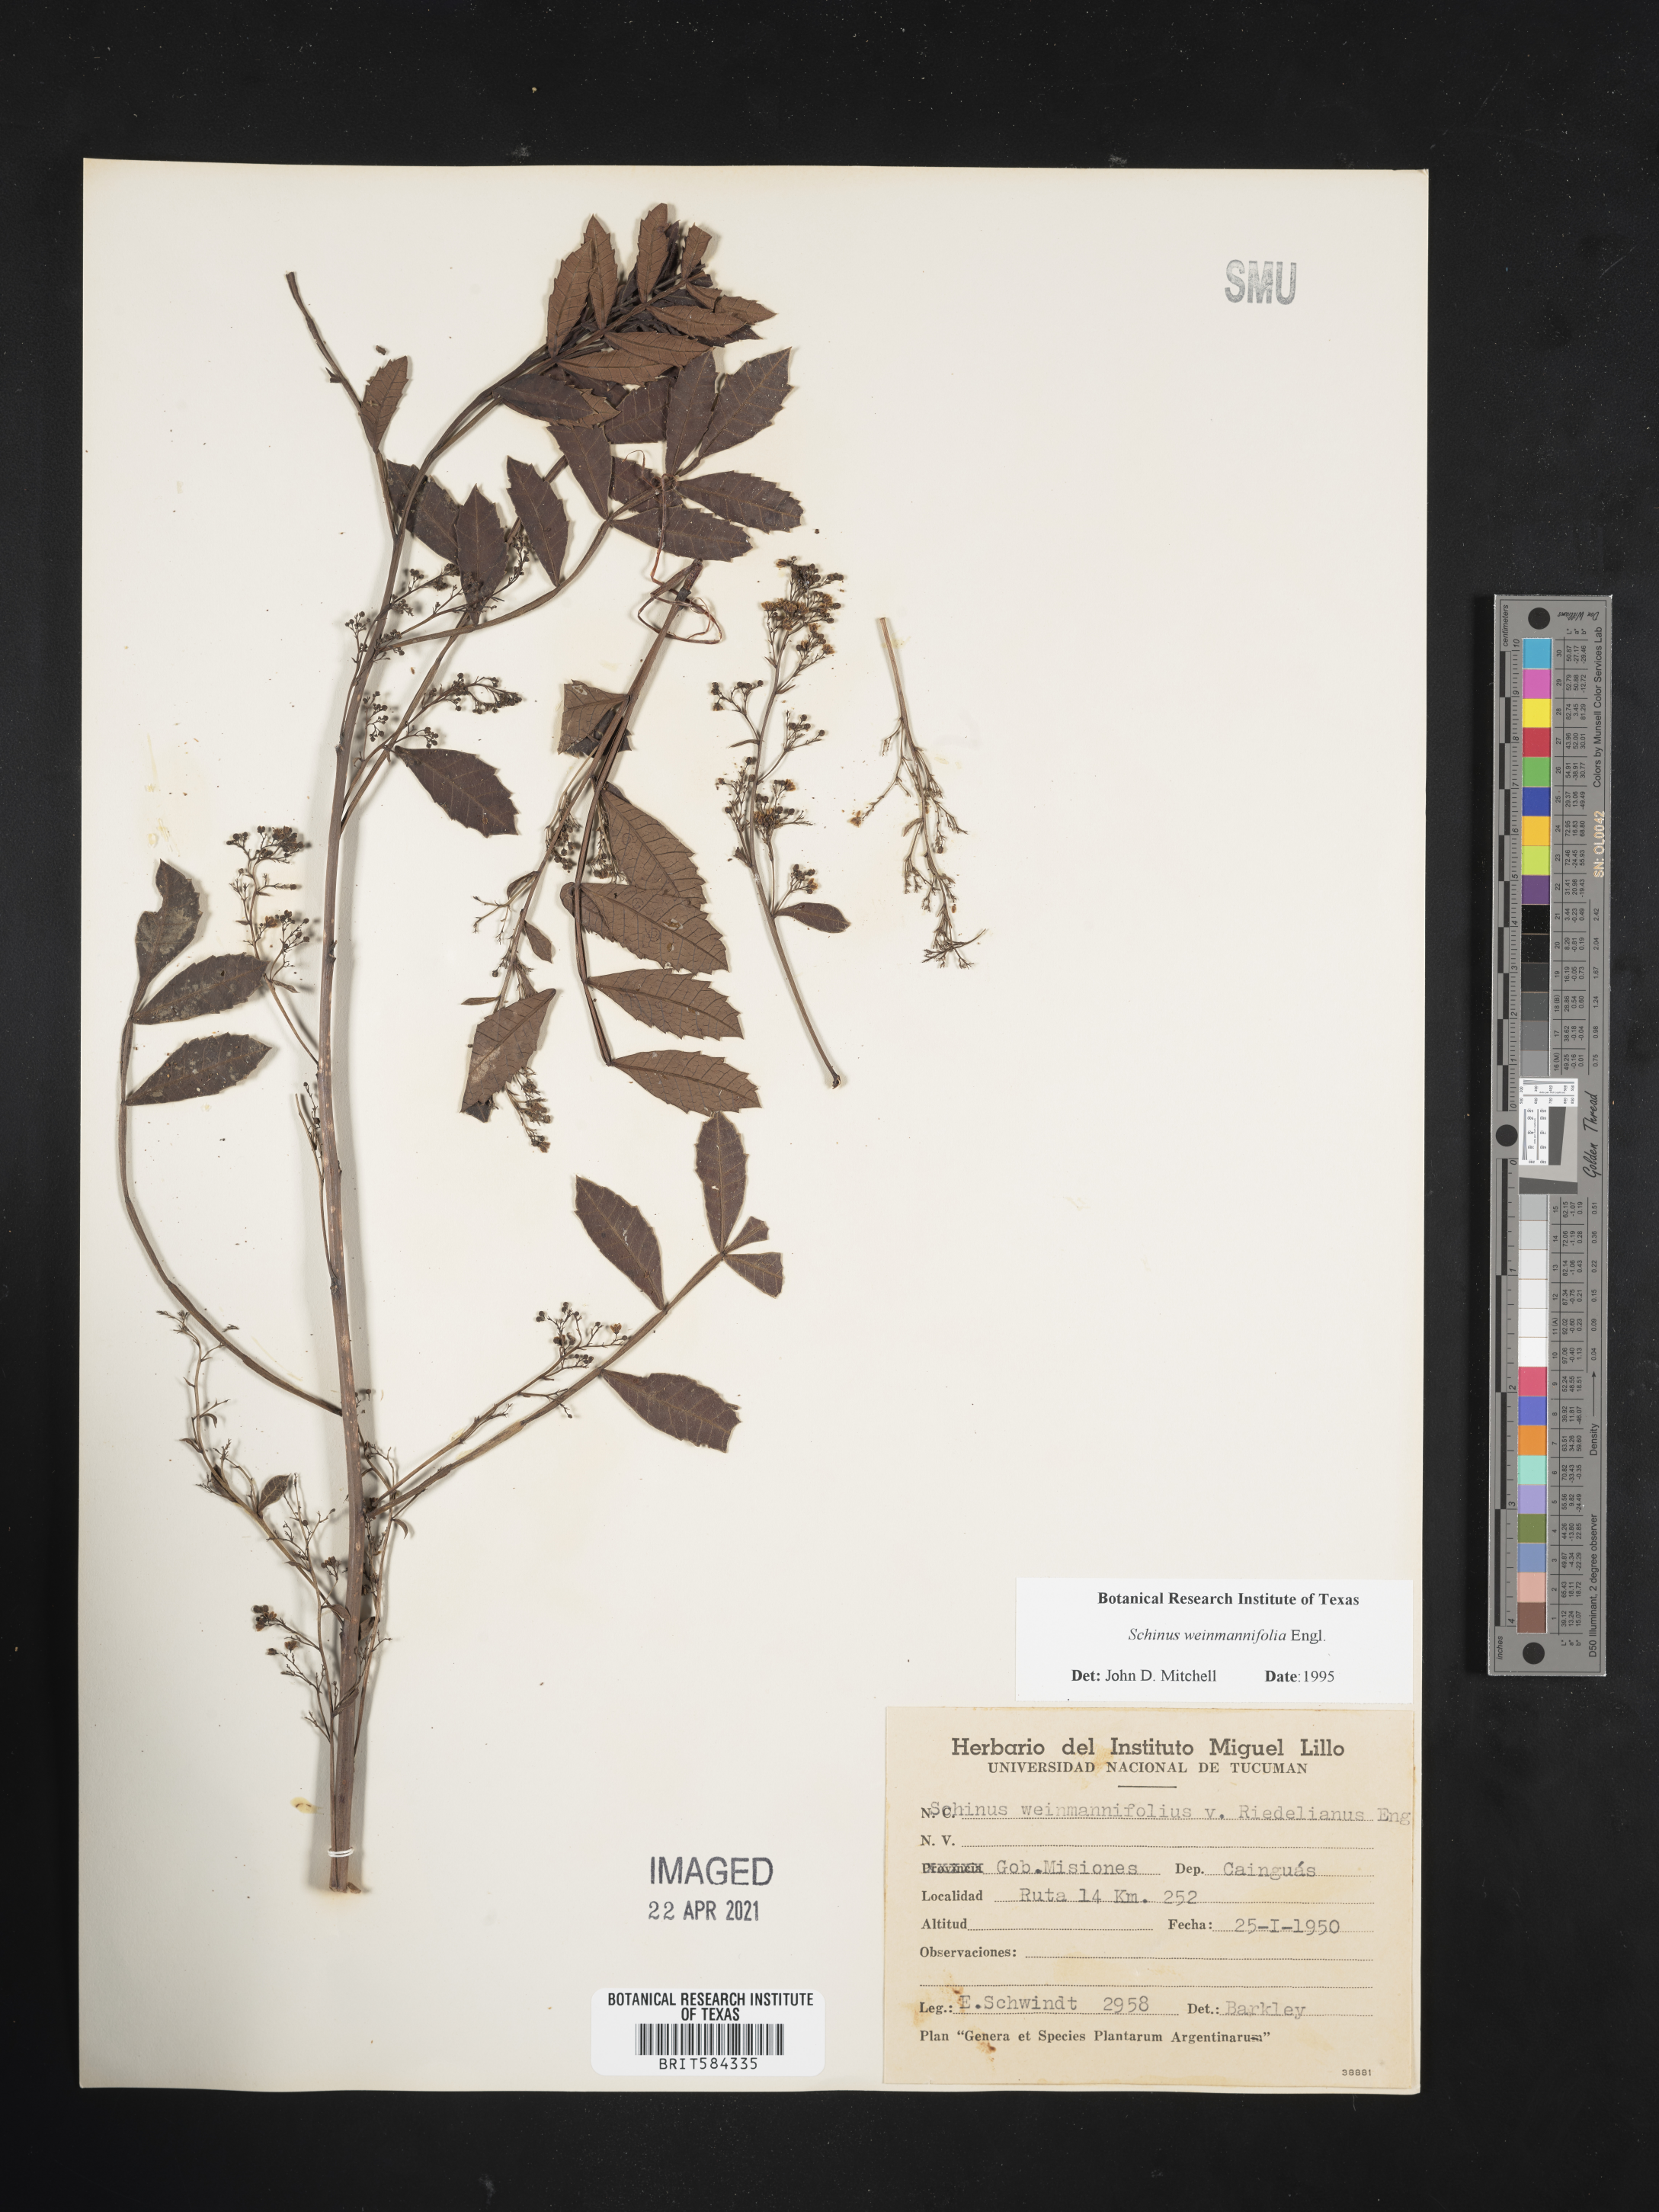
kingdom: Plantae
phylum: Tracheophyta
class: Magnoliopsida
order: Sapindales
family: Anacardiaceae
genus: Schinus
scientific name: Schinus weinmanniifolia
